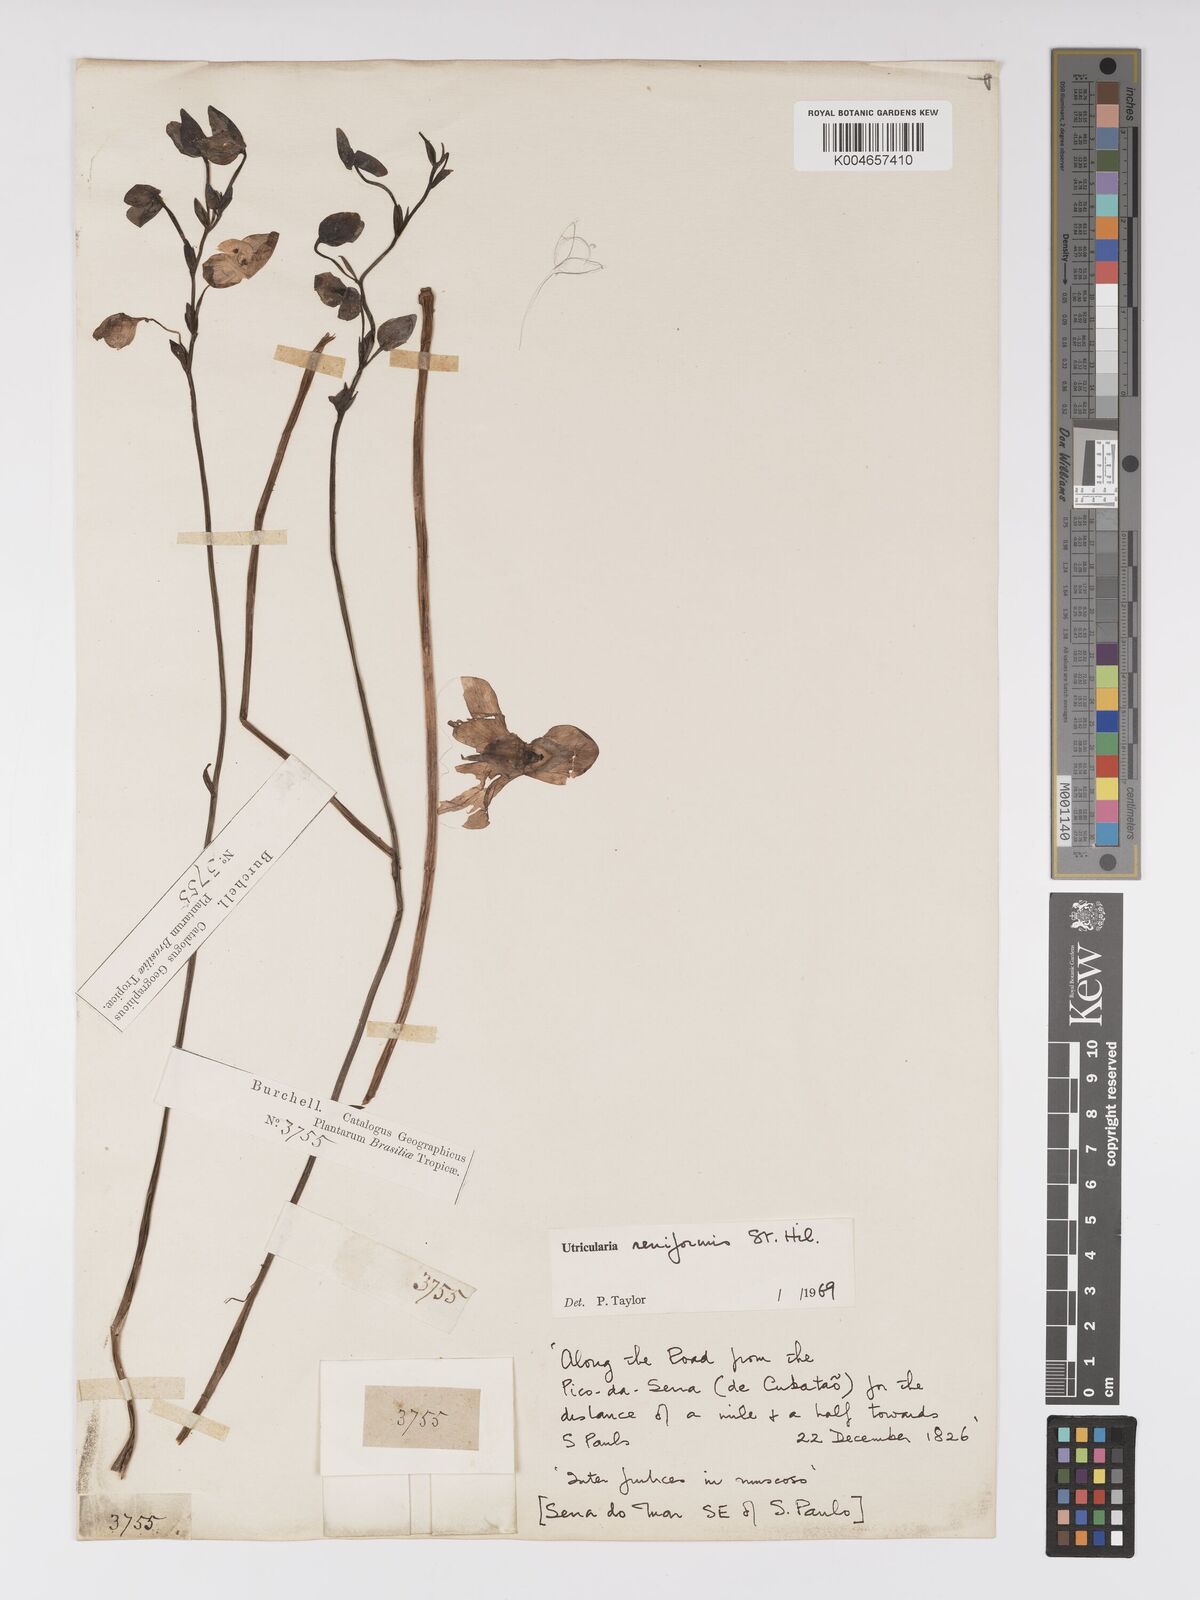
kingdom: Plantae
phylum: Tracheophyta
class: Magnoliopsida
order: Lamiales
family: Lentibulariaceae
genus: Utricularia
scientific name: Utricularia reniformis
